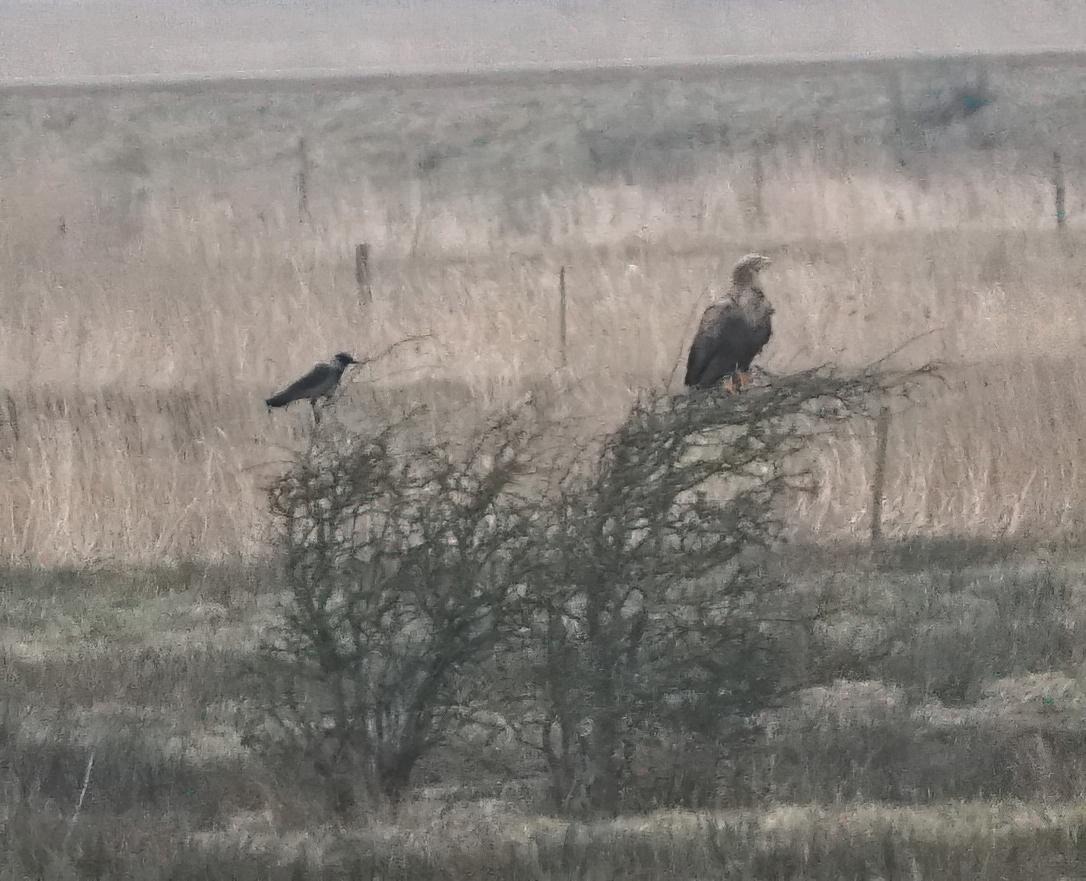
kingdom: Animalia
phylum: Chordata
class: Aves
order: Accipitriformes
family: Accipitridae
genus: Haliaeetus
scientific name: Haliaeetus albicilla
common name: Havørn
